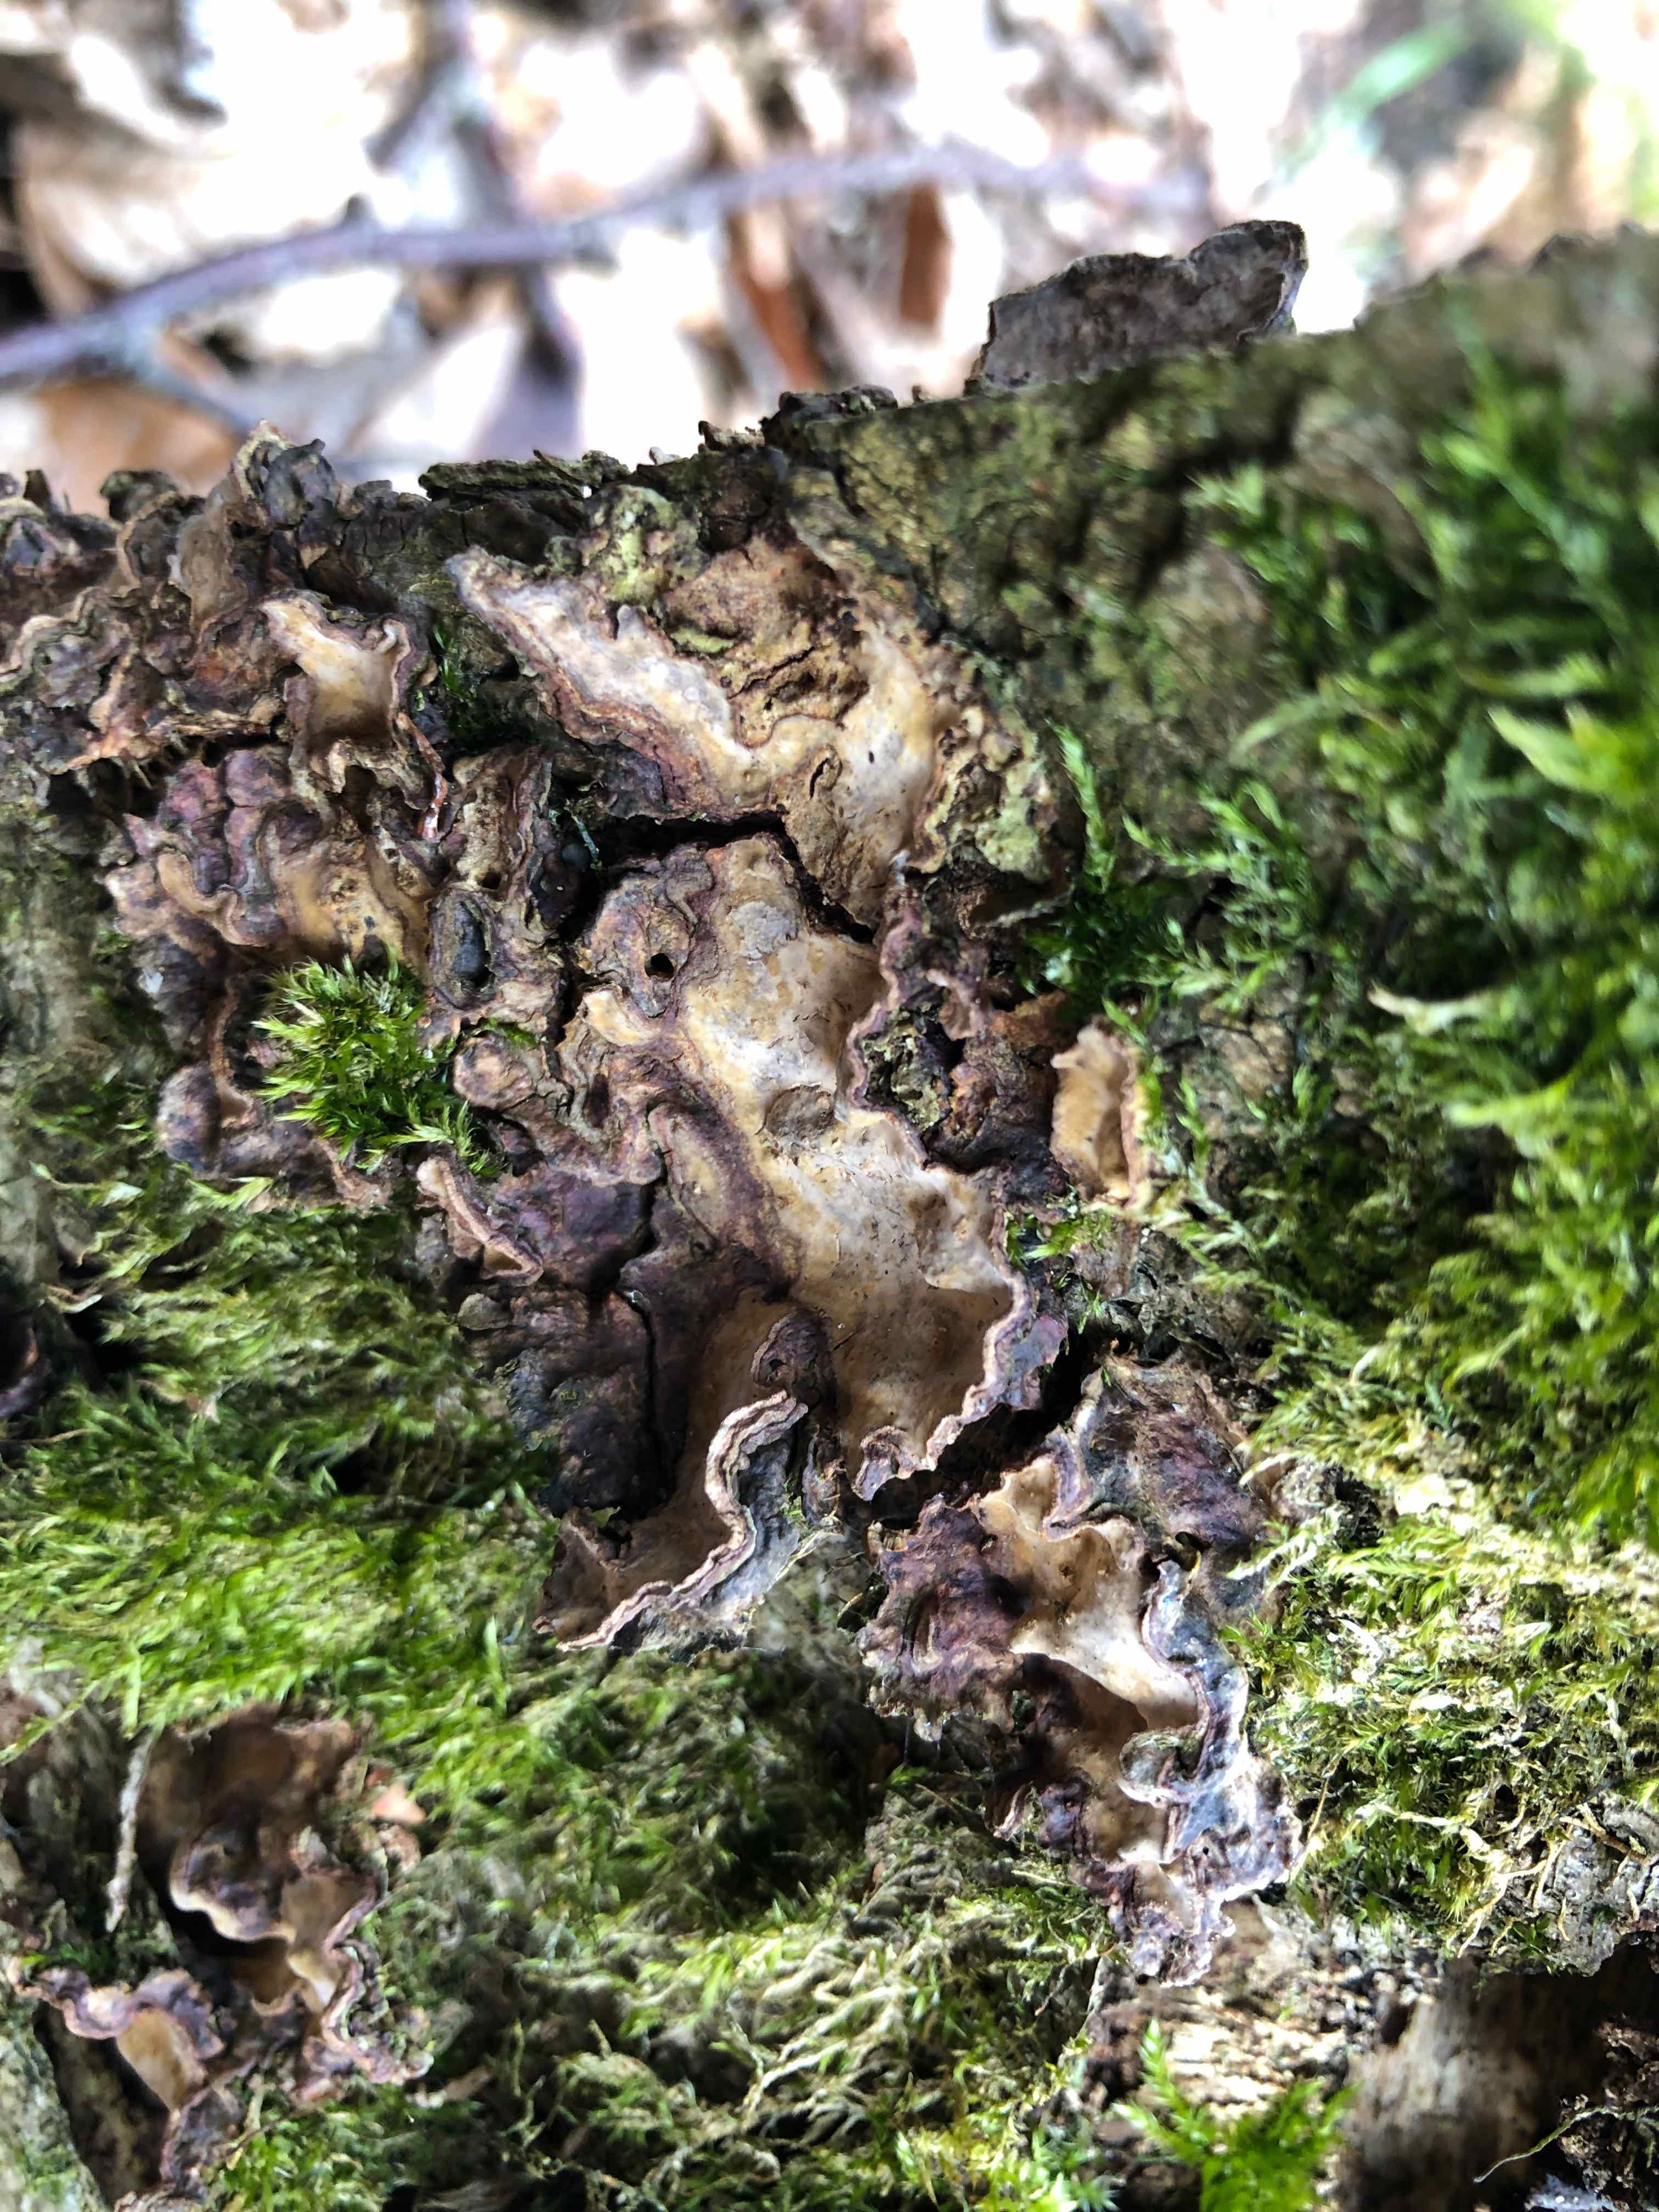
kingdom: Fungi
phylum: Basidiomycota
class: Agaricomycetes
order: Russulales
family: Stereaceae
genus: Stereum
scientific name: Stereum rugosum
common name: rynket lædersvamp
